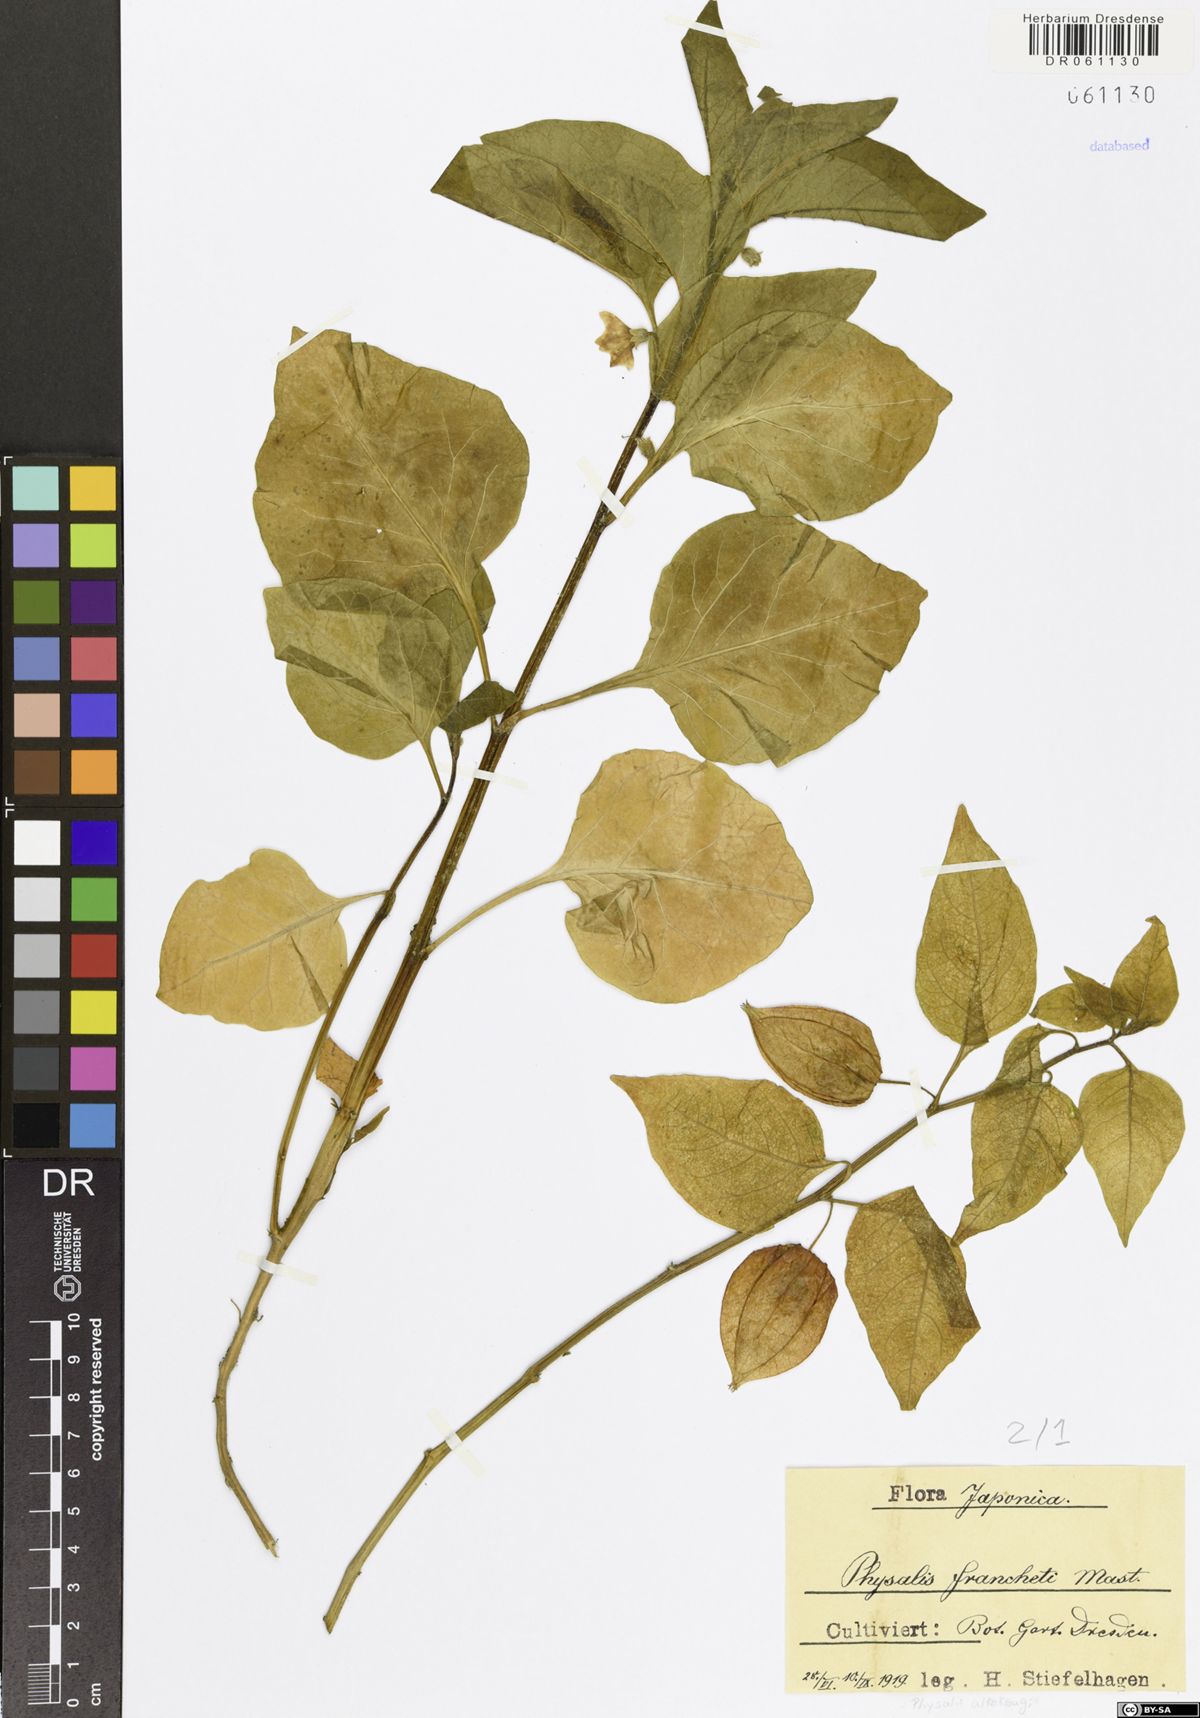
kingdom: Plantae
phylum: Tracheophyta
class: Magnoliopsida
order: Solanales
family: Solanaceae
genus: Alkekengi
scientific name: Alkekengi officinarum
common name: Japanese-lantern
